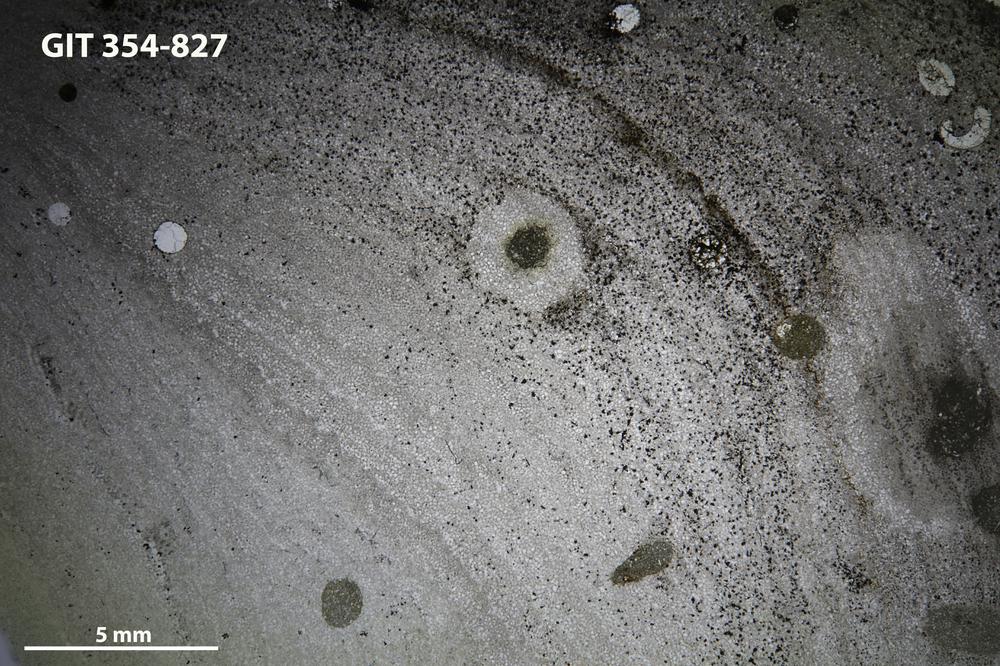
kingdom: Animalia
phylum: Porifera
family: Densastromatidae
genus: Densastroma
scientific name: Densastroma
